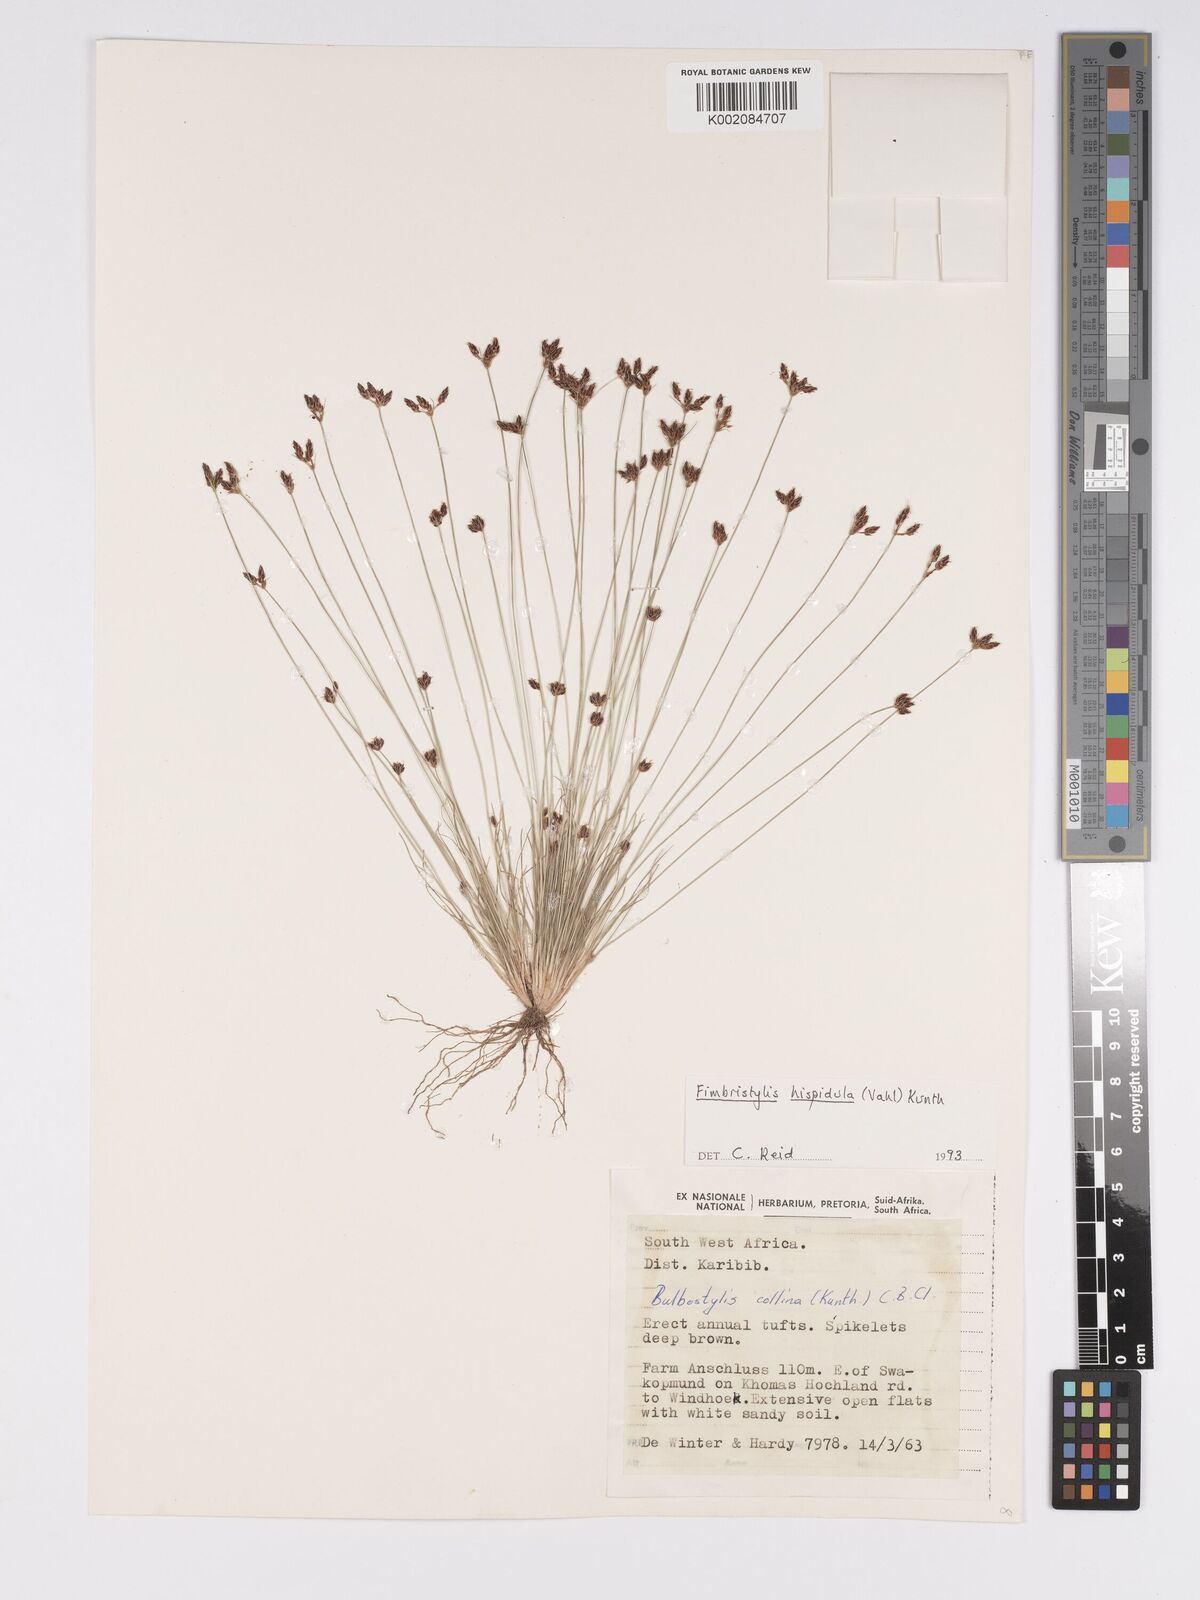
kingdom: Plantae
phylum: Tracheophyta
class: Liliopsida
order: Poales
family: Cyperaceae
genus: Bulbostylis
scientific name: Bulbostylis hispidula
